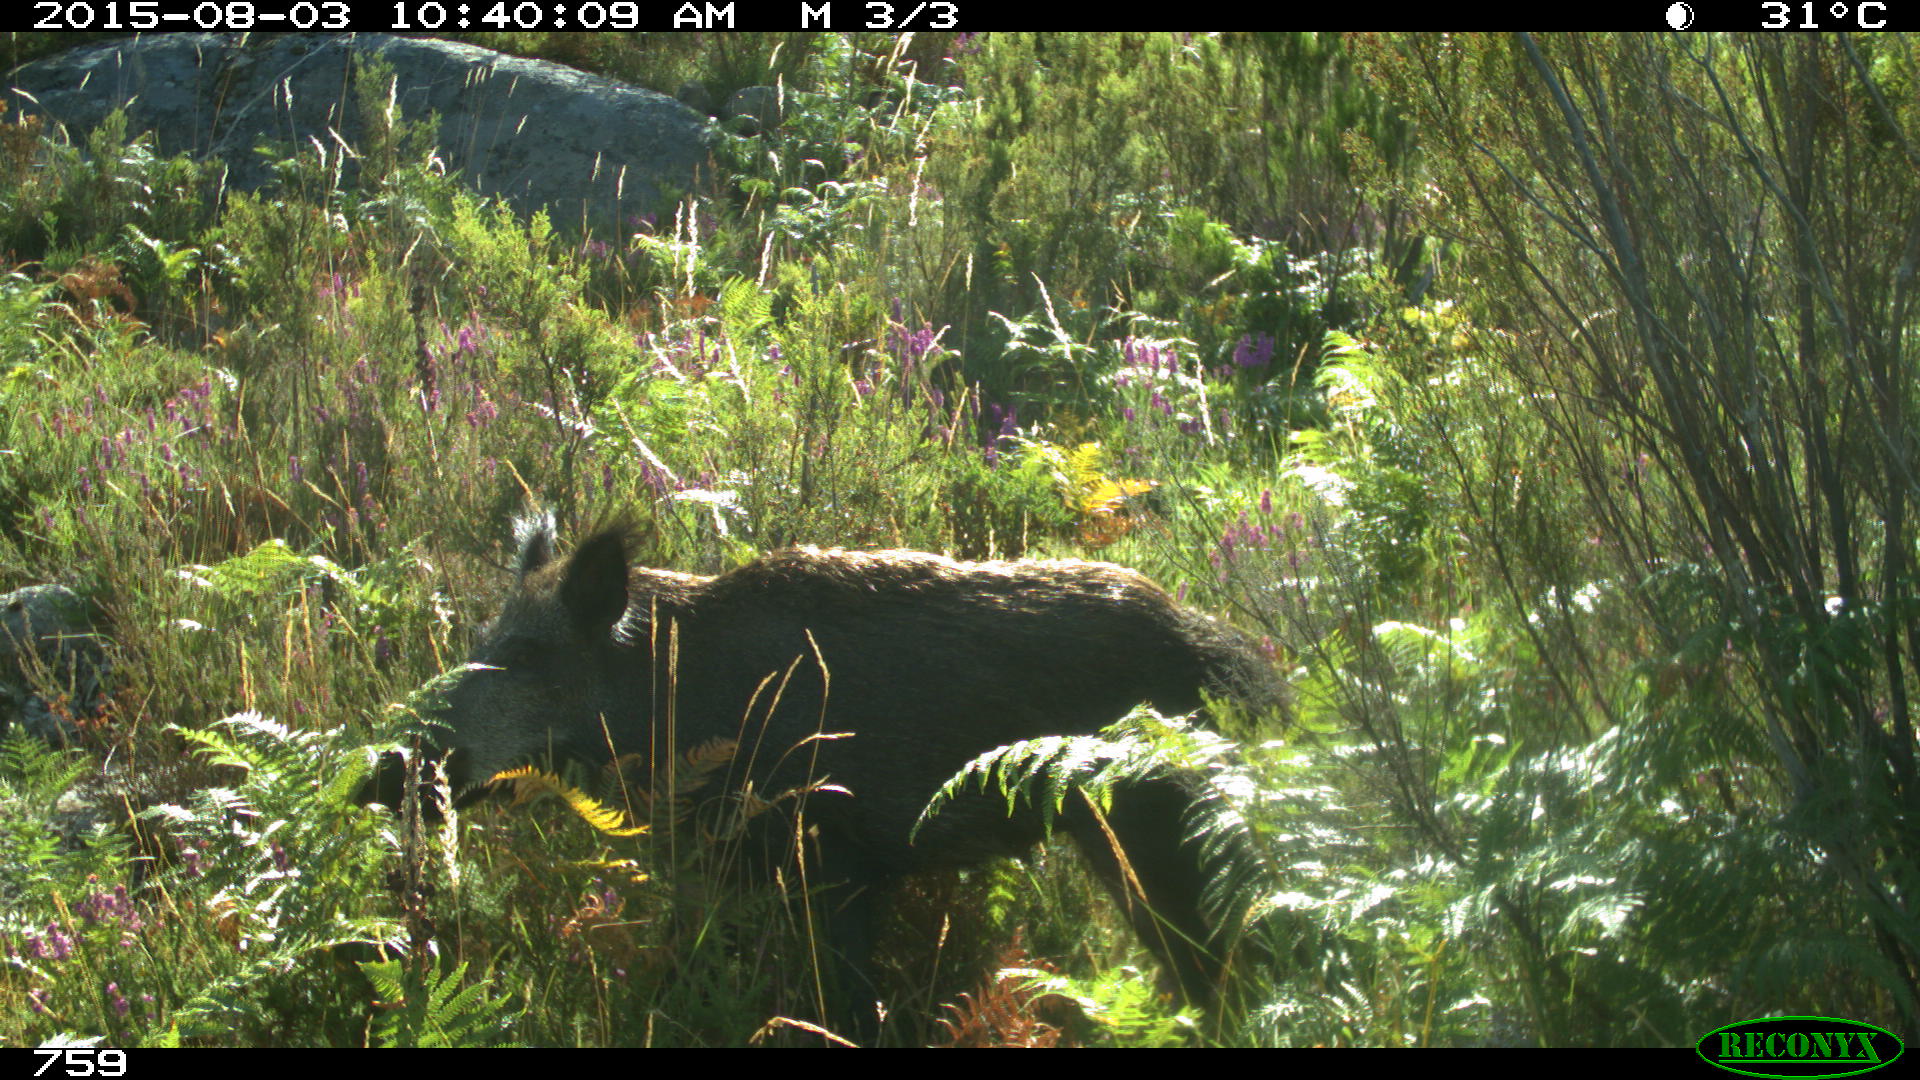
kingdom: Animalia
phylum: Chordata
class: Mammalia
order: Artiodactyla
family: Suidae
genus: Sus
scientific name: Sus scrofa
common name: Wild boar
